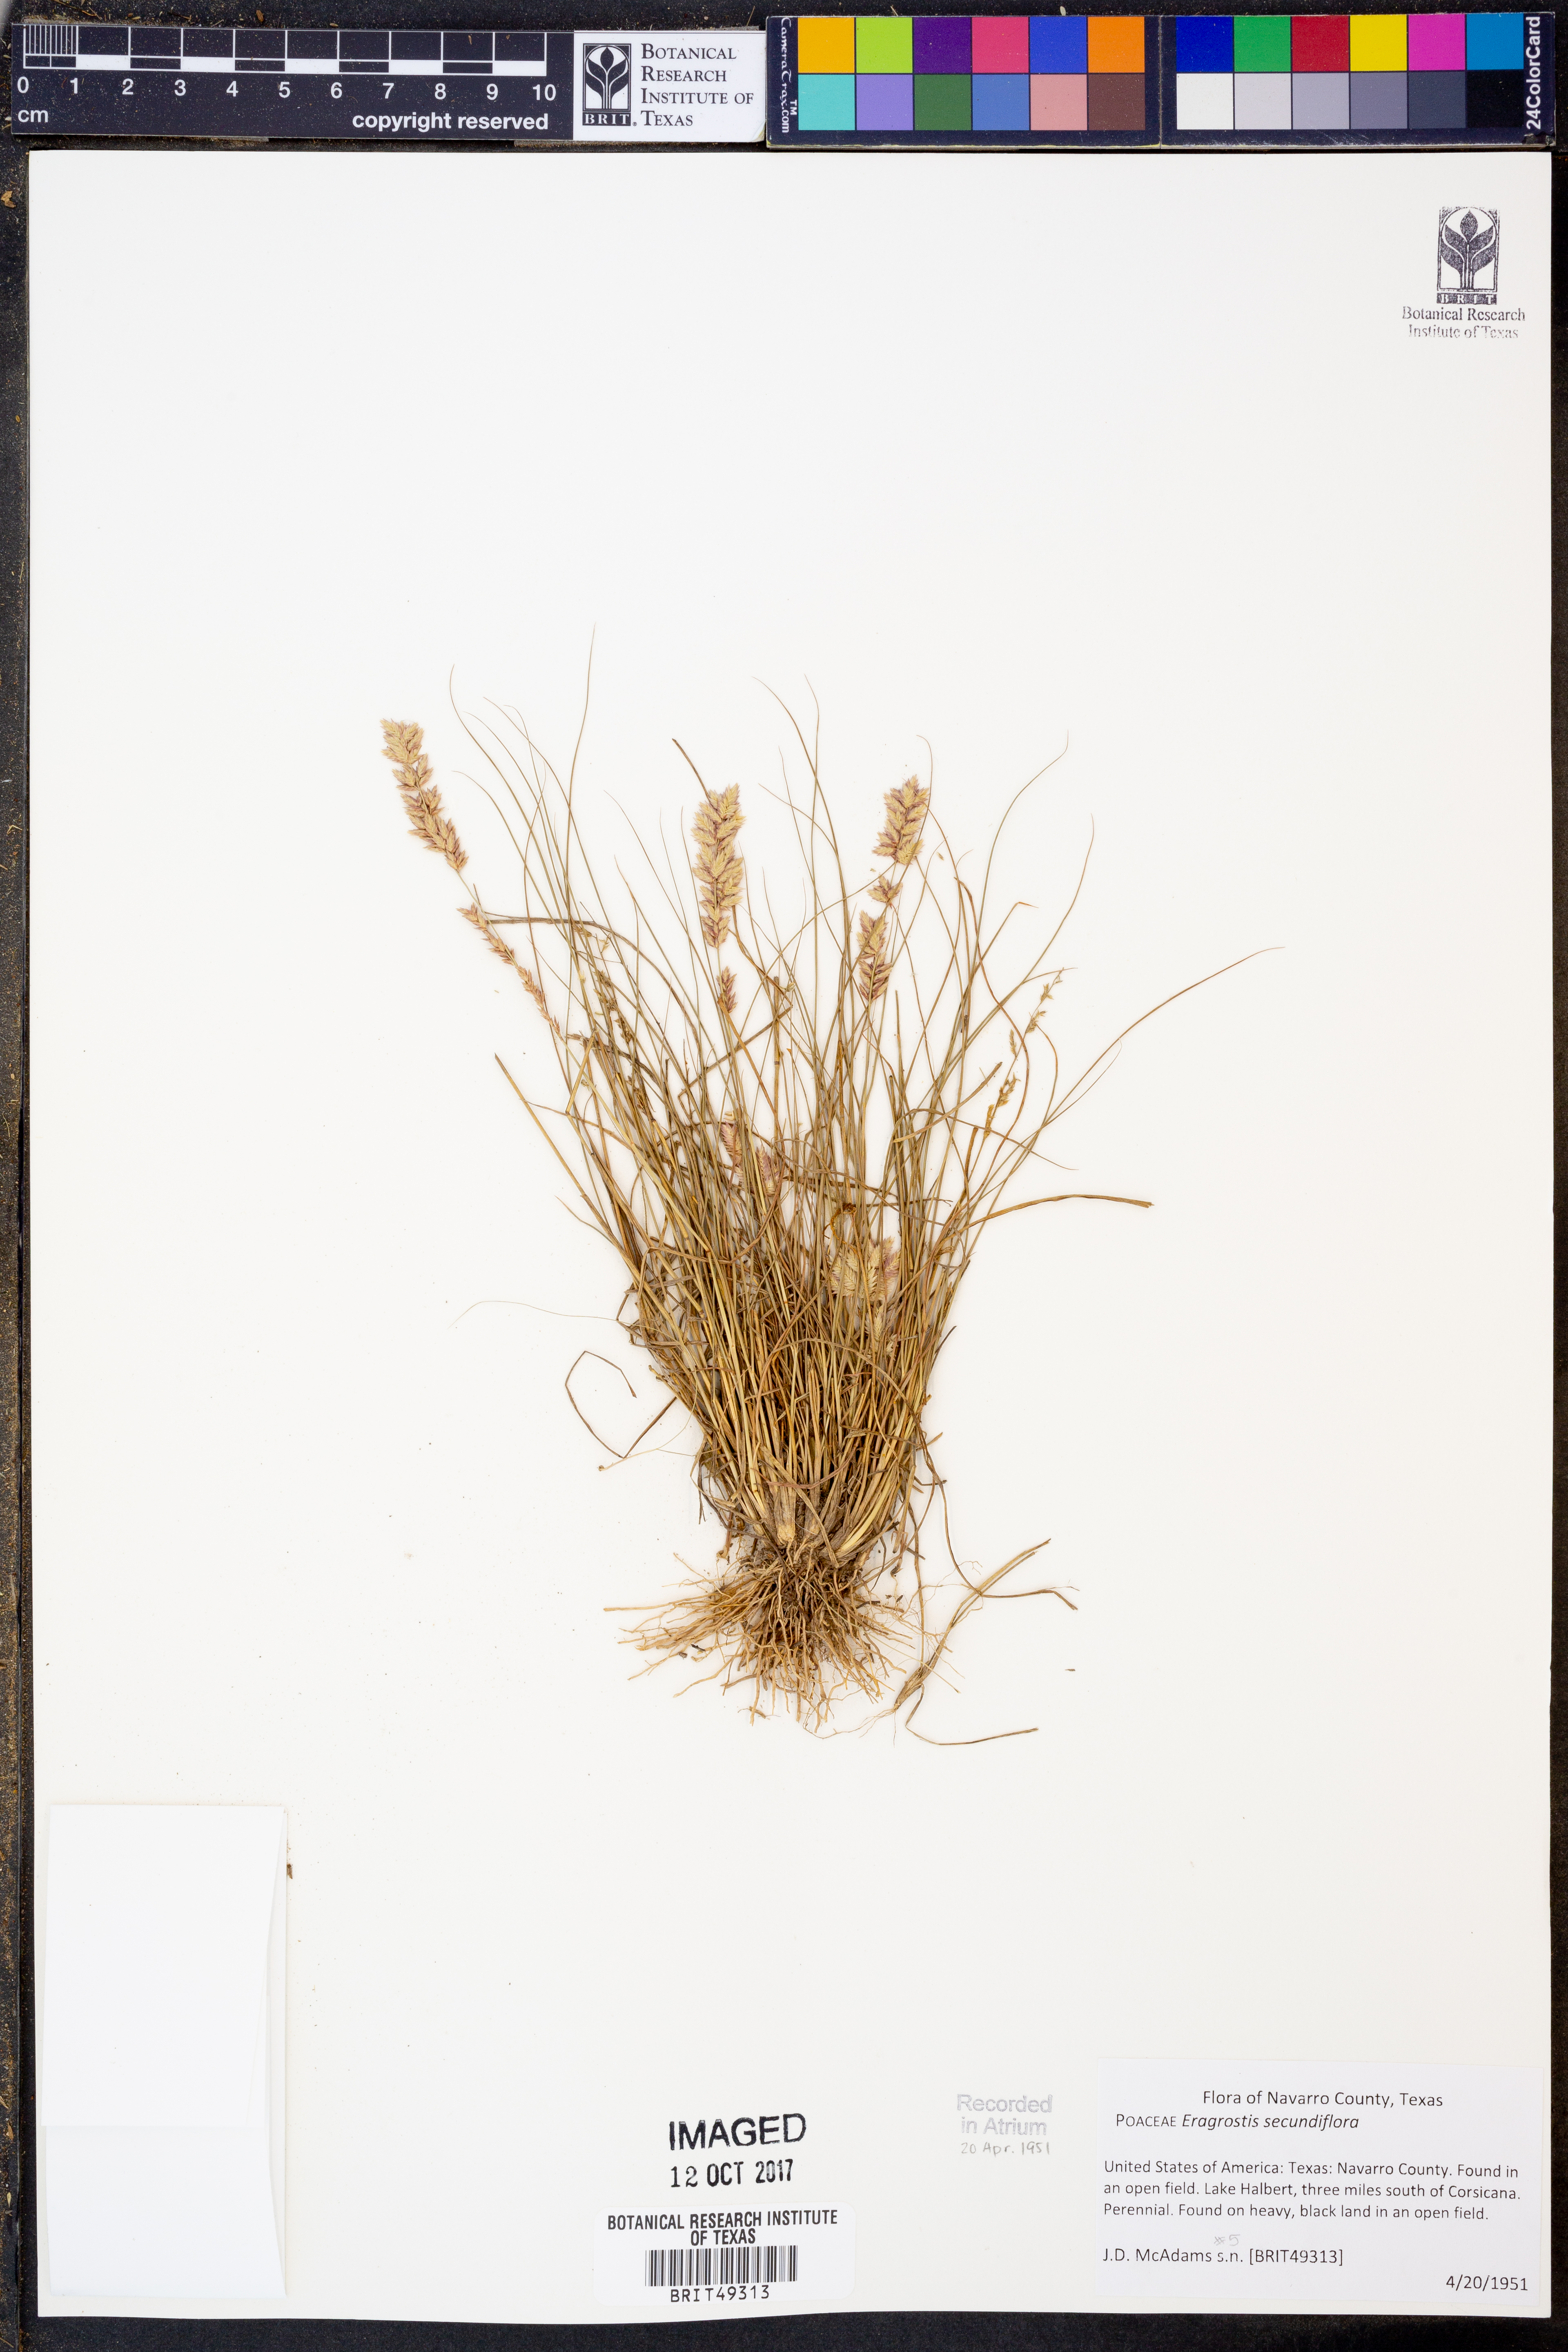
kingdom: Plantae
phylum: Tracheophyta
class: Liliopsida
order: Poales
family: Poaceae
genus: Eragrostis
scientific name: Eragrostis secundiflora
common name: Red love grass
